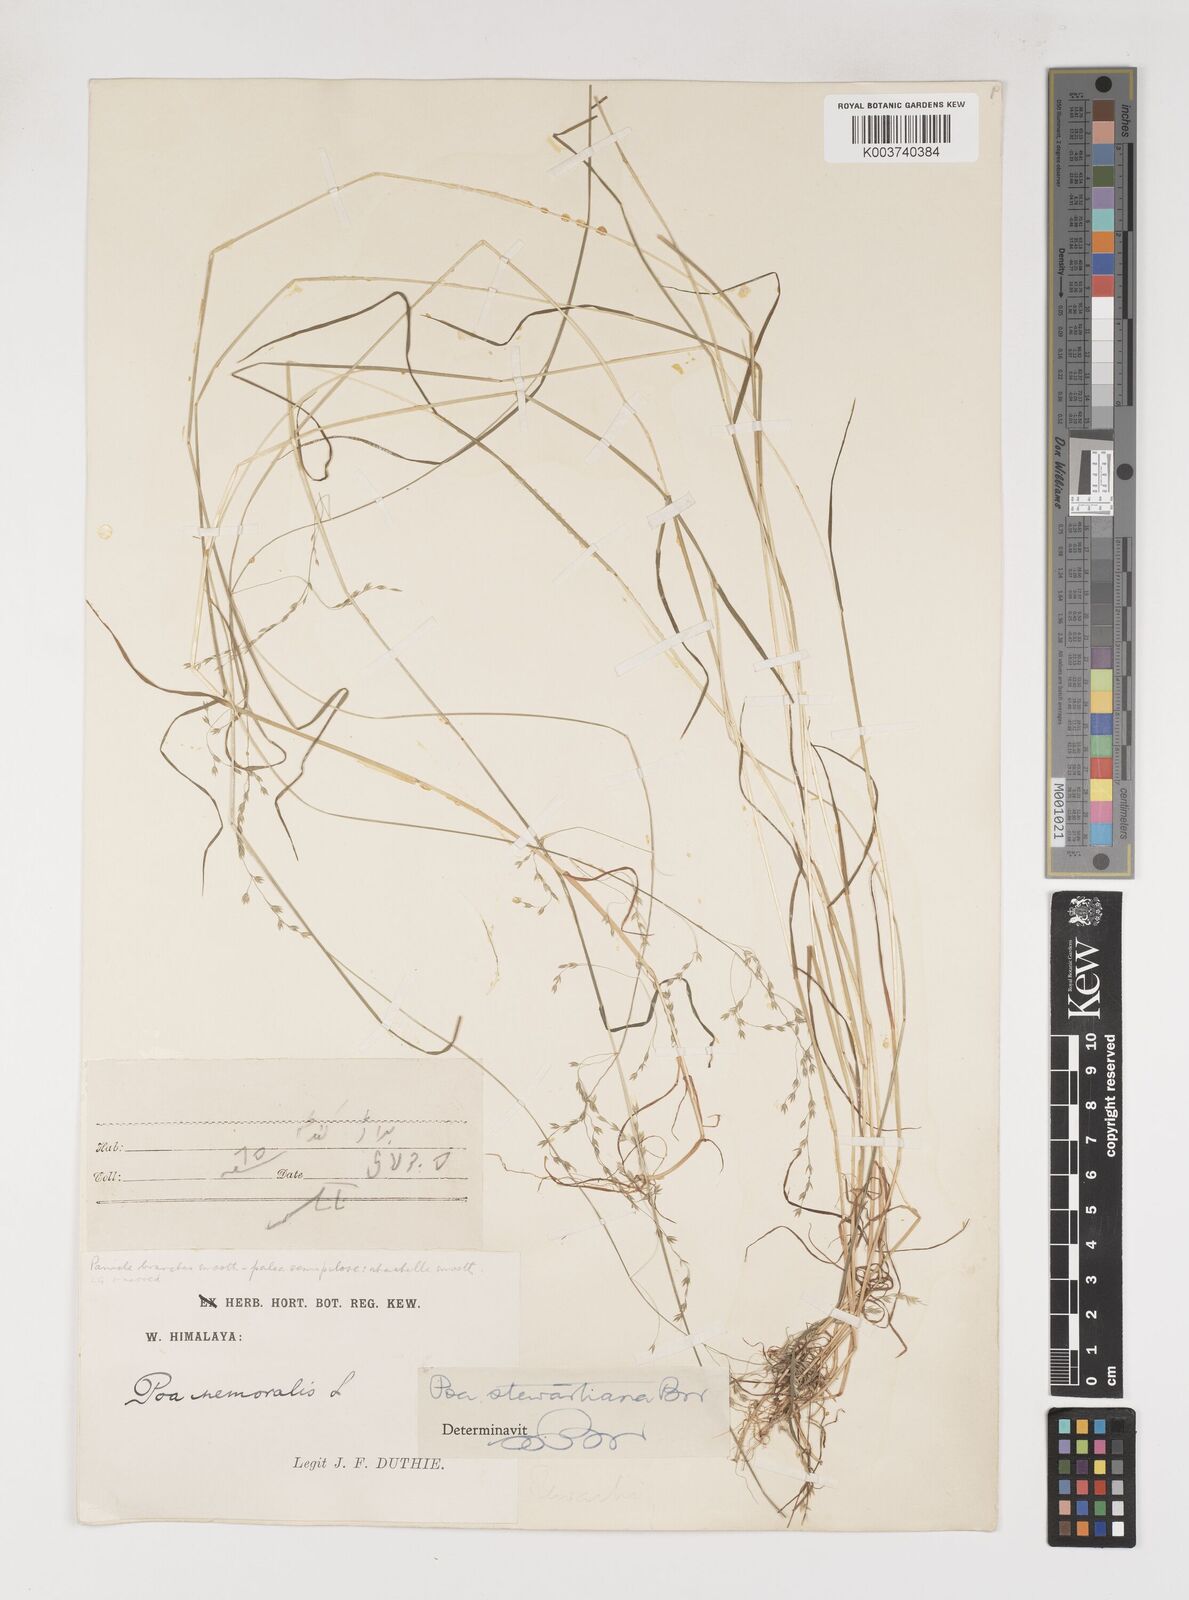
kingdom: Plantae
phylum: Tracheophyta
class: Liliopsida
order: Poales
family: Poaceae
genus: Poa
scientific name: Poa stewartiana
